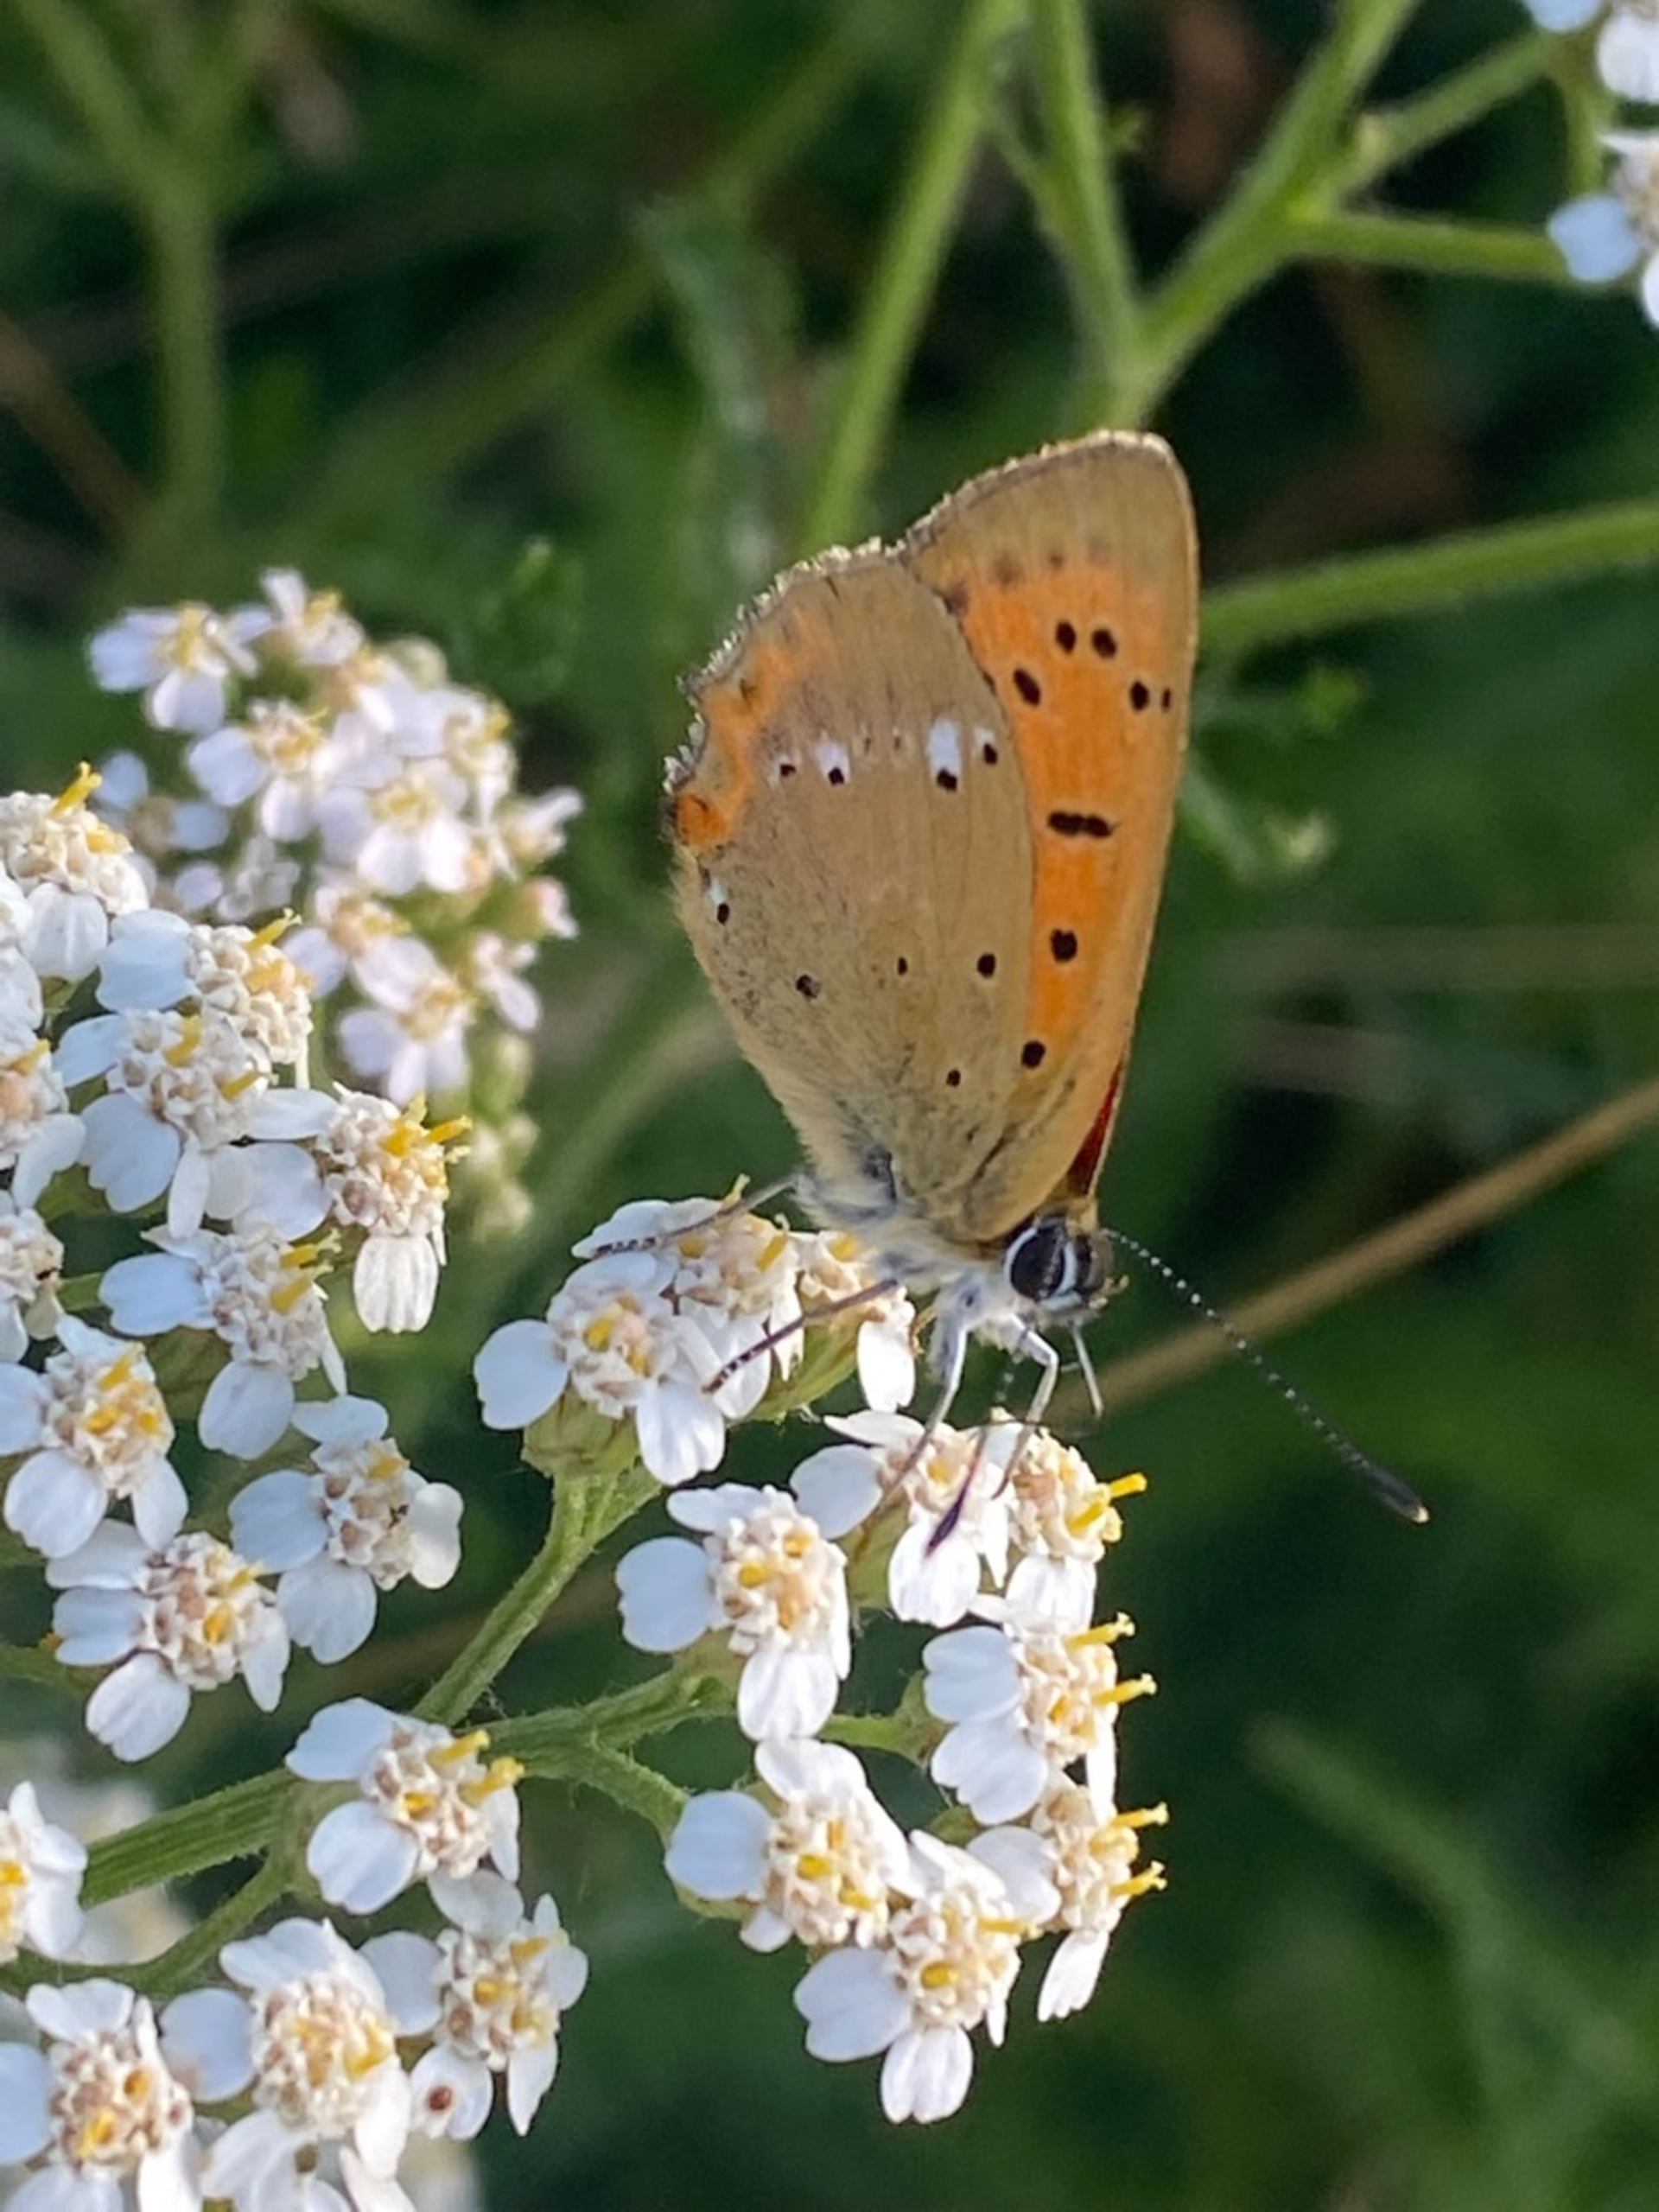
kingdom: Animalia
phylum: Arthropoda
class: Insecta
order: Lepidoptera
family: Lycaenidae
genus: Lycaena
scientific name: Lycaena virgaureae
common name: Dukatsommerfugl
